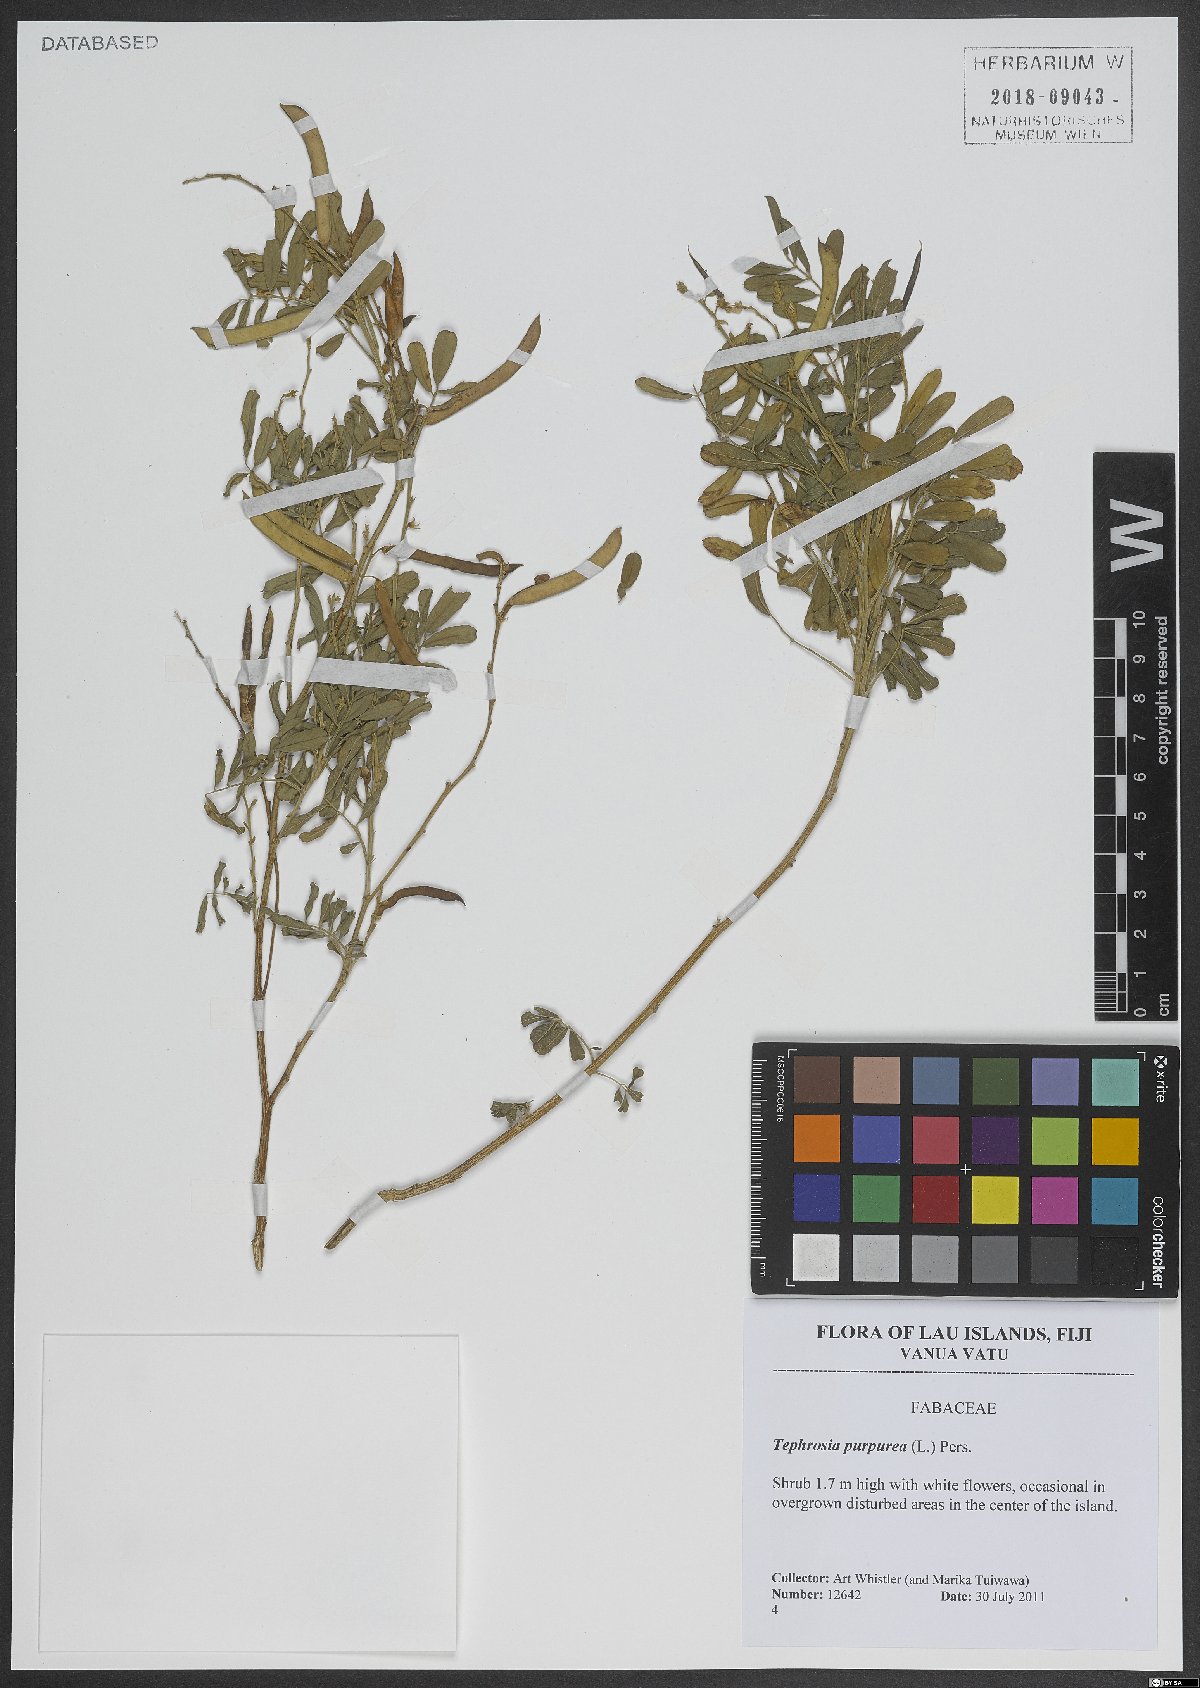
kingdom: Plantae
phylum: Tracheophyta
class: Magnoliopsida
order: Fabales
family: Fabaceae
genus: Tephrosia
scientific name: Tephrosia purpurea
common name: Fishpoison
